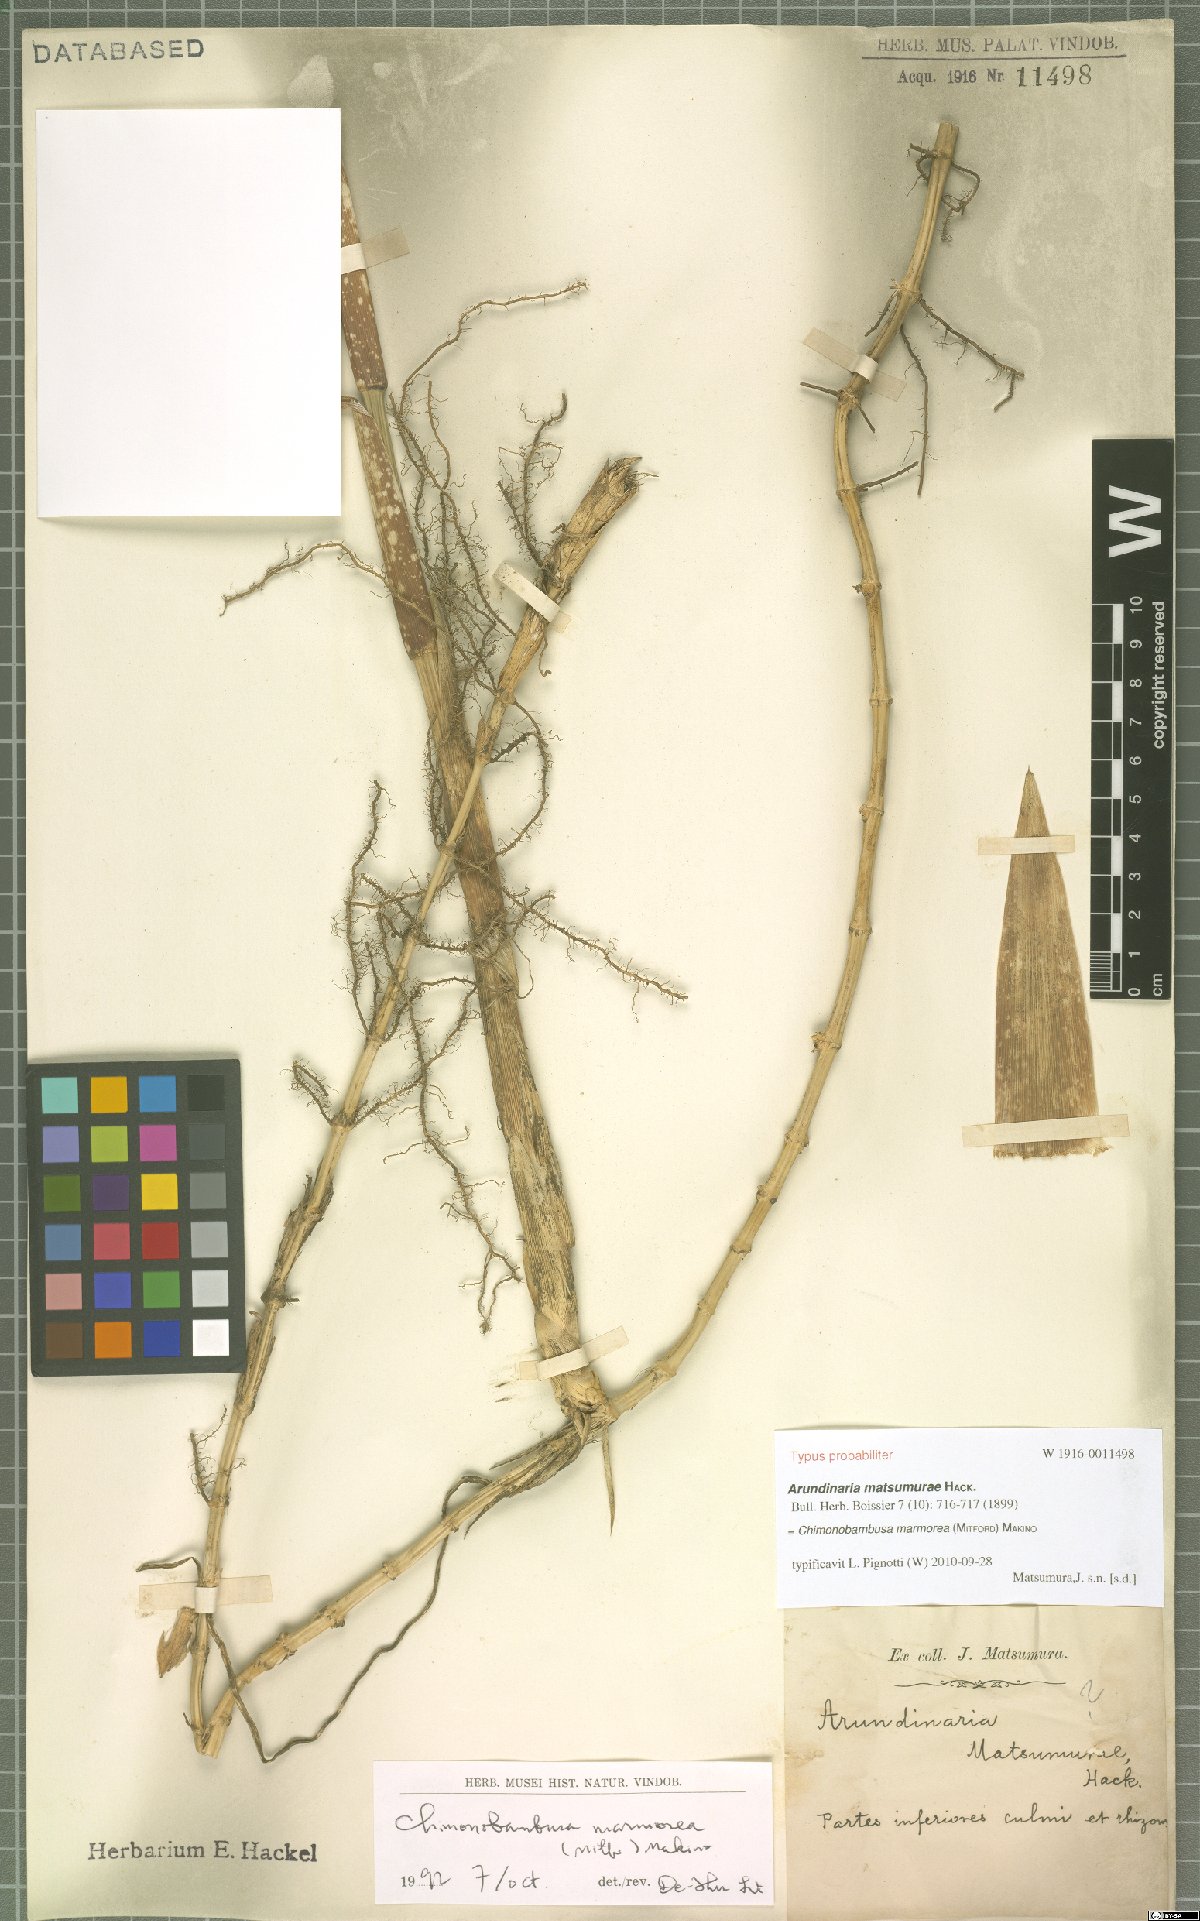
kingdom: Plantae
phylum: Tracheophyta
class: Liliopsida
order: Poales
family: Poaceae
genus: Chimonobambusa
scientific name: Chimonobambusa marmorea
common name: Marbled bamboo
